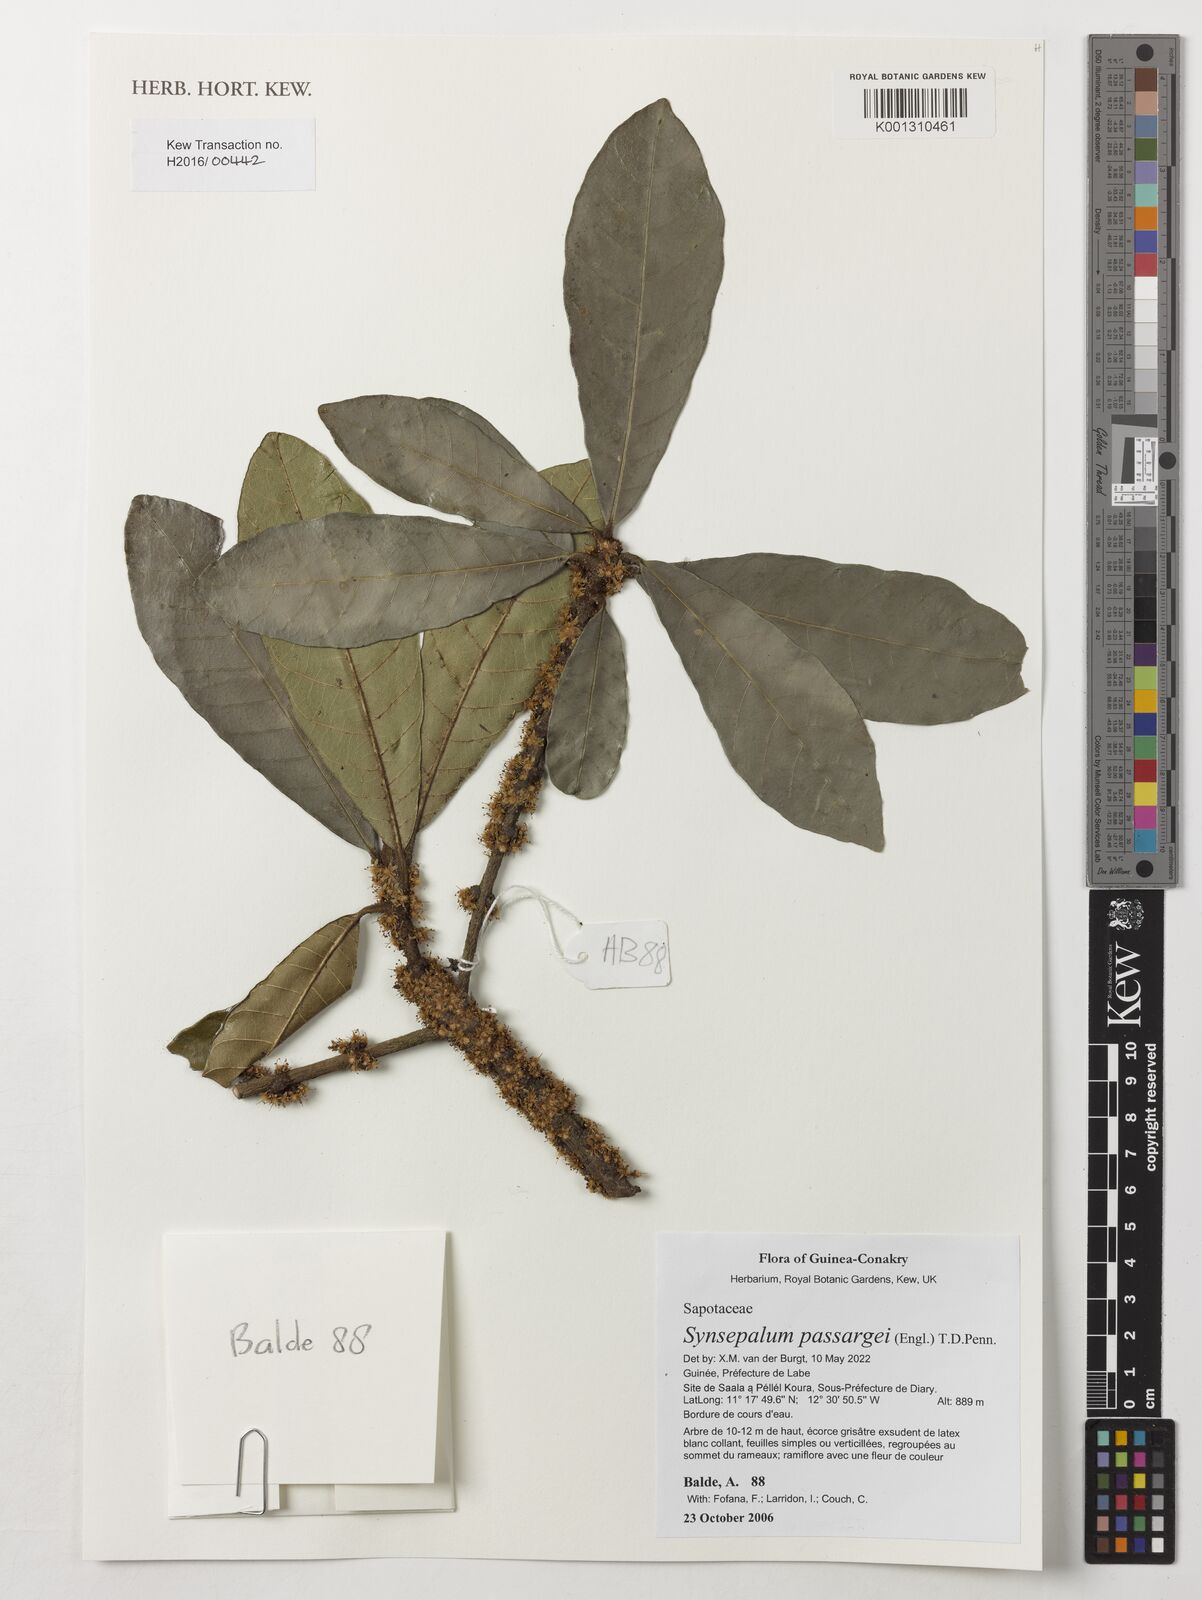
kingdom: Plantae
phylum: Tracheophyta
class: Magnoliopsida
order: Ericales
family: Sapotaceae
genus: Synsepalum
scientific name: Synsepalum passargei
